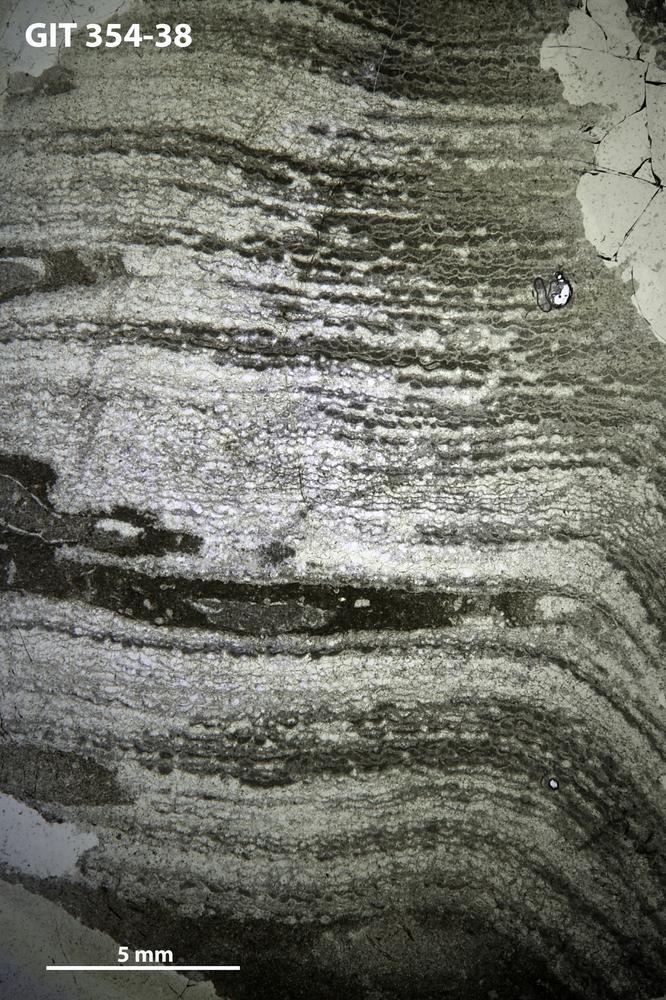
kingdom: Animalia
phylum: Porifera
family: Clathrodictyidae
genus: Clathrodictyon
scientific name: Clathrodictyon microundulatum
